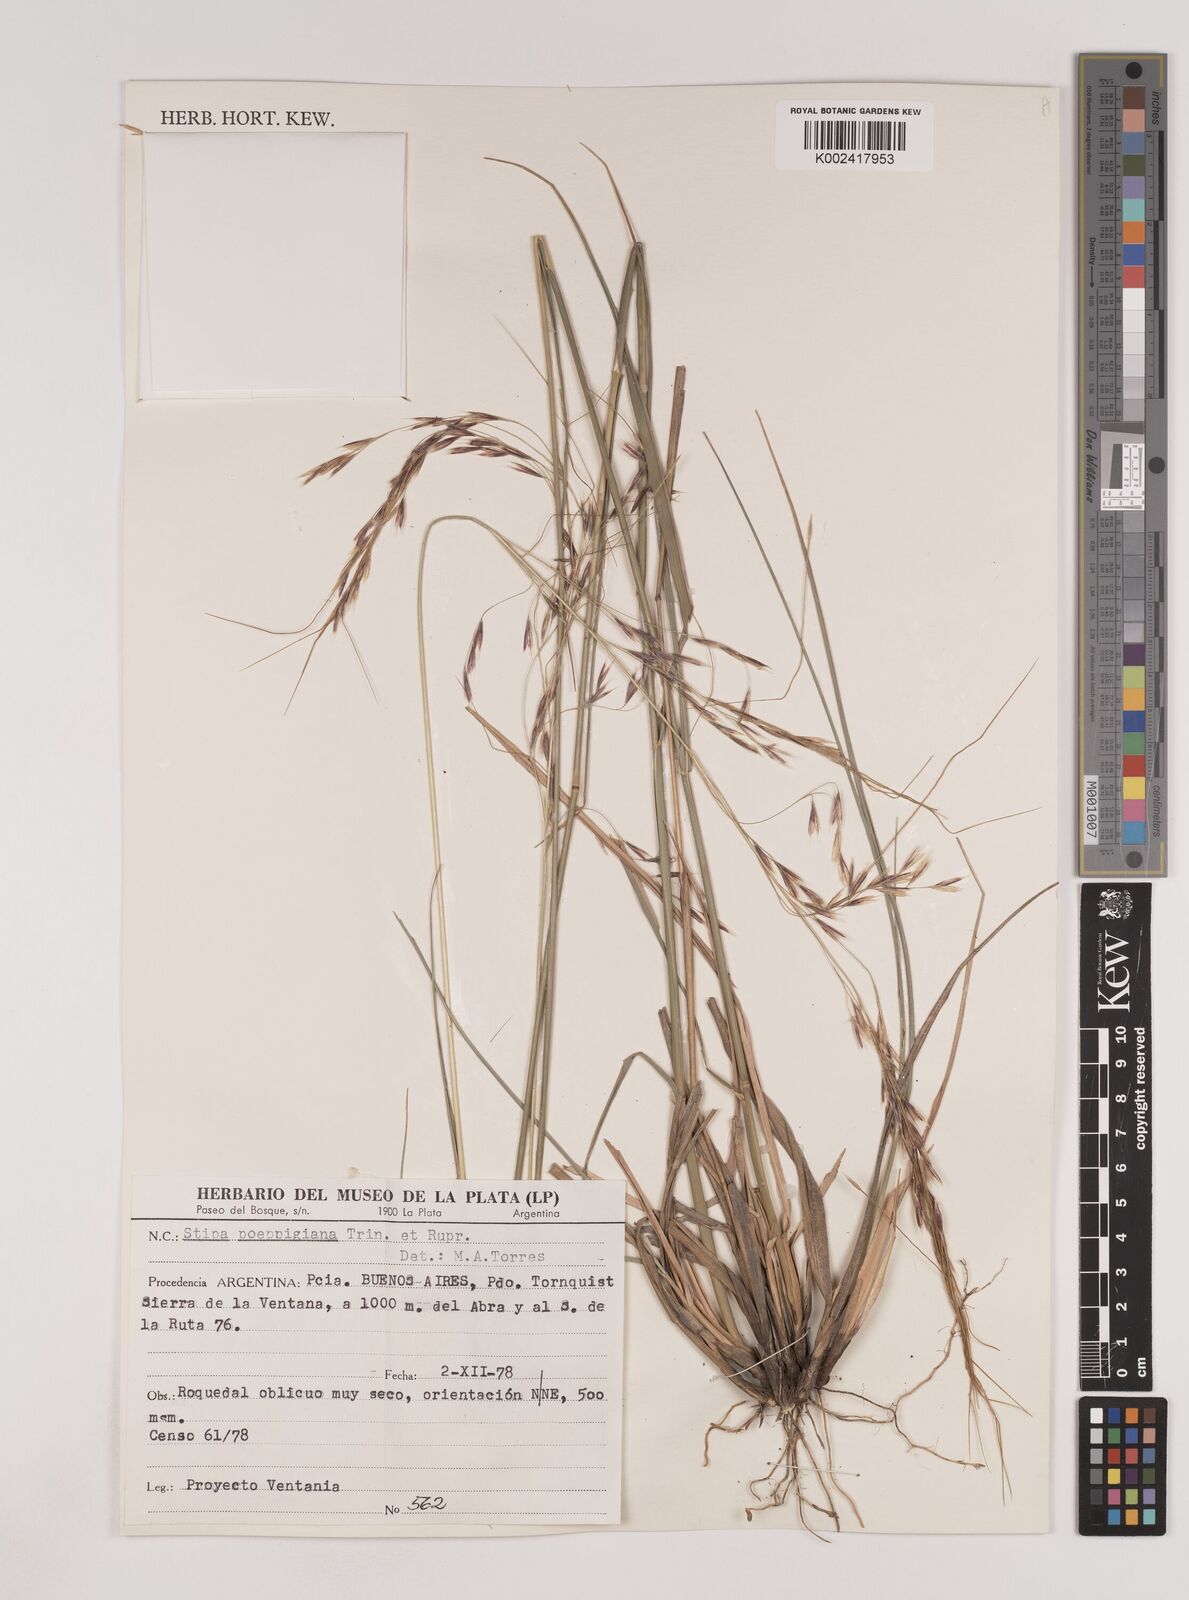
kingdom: Plantae
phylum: Tracheophyta
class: Liliopsida
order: Poales
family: Poaceae
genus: Nassella
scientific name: Nassella poeppigiana
